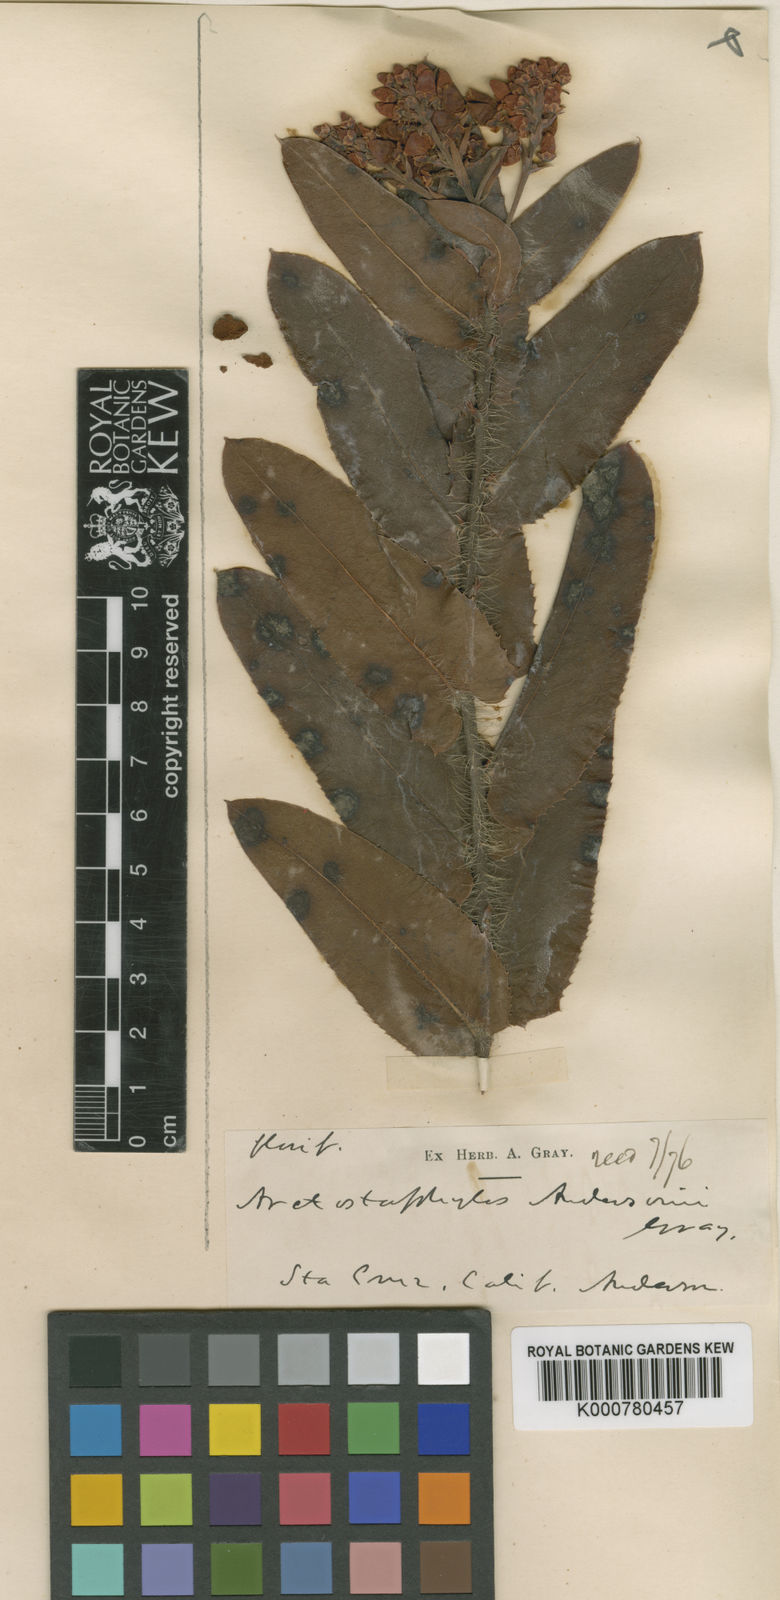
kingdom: Plantae
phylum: Tracheophyta
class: Magnoliopsida
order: Ericales
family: Ericaceae
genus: Arctostaphylos
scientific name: Arctostaphylos andersonii
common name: Santa cruz manzanita
